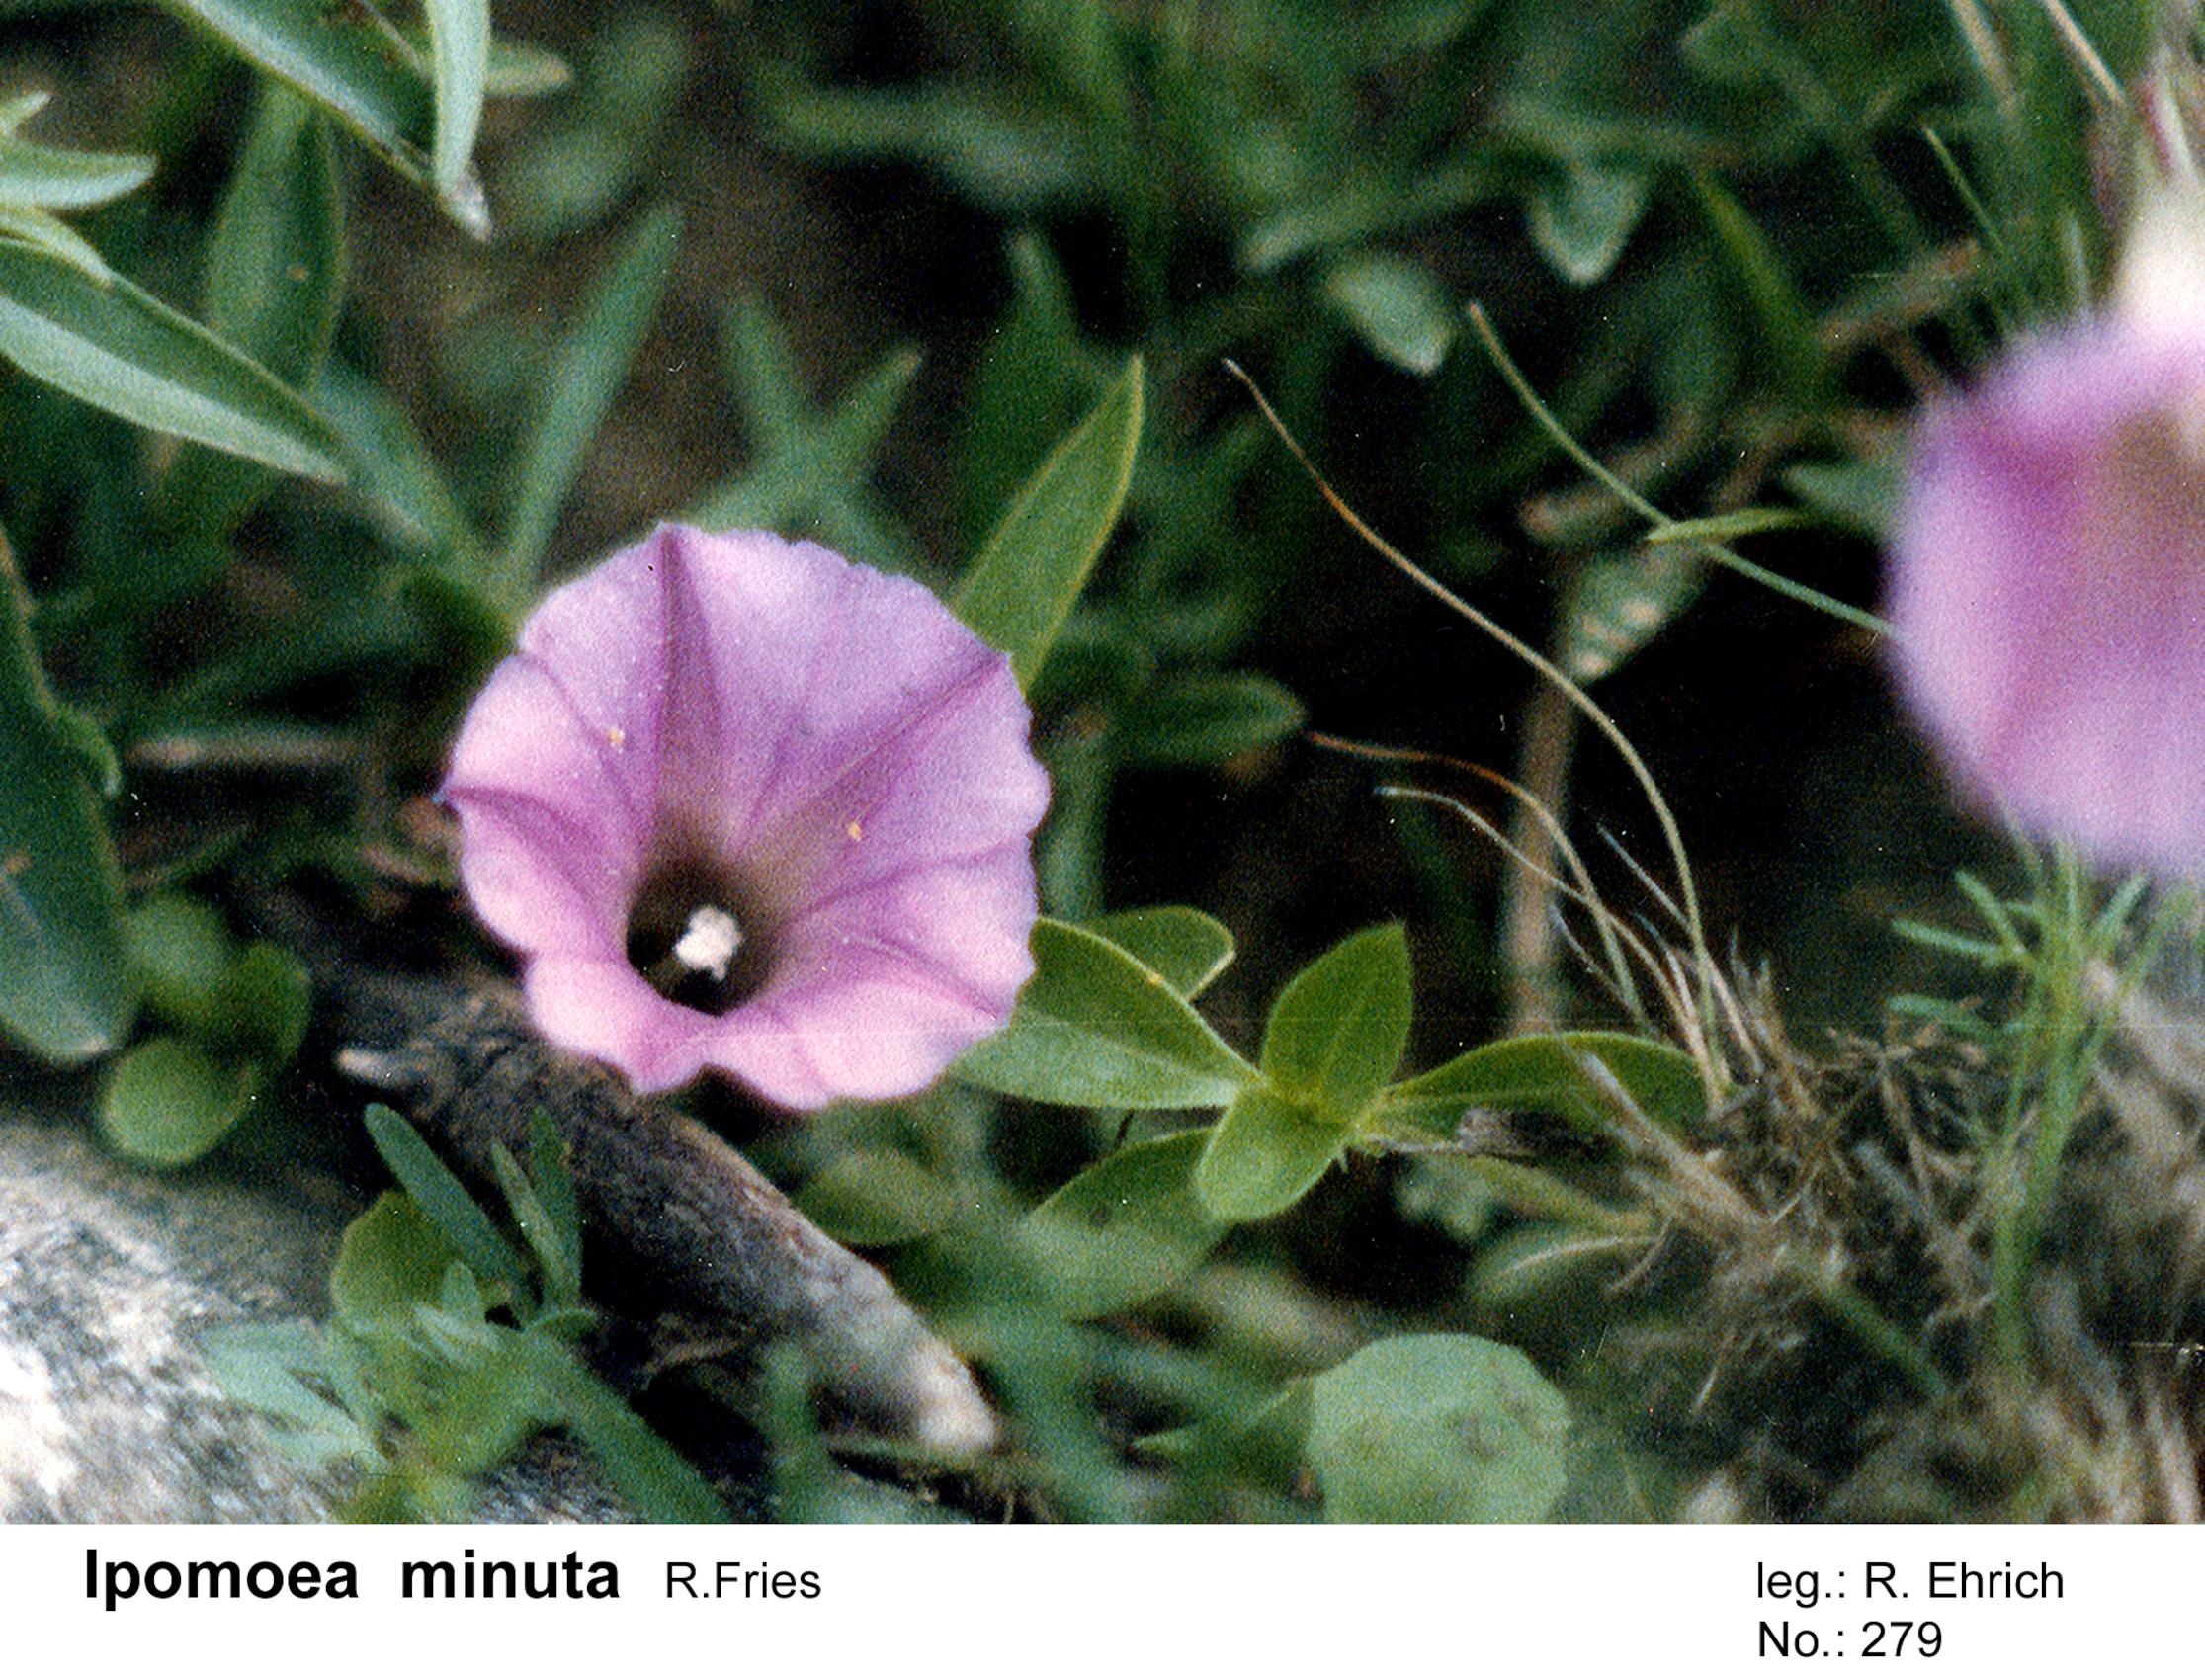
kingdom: Plantae
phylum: Tracheophyta
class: Magnoliopsida
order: Solanales
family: Convolvulaceae
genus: Ipomoea
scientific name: Ipomoea plummerae
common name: Plummer's morning-glory
